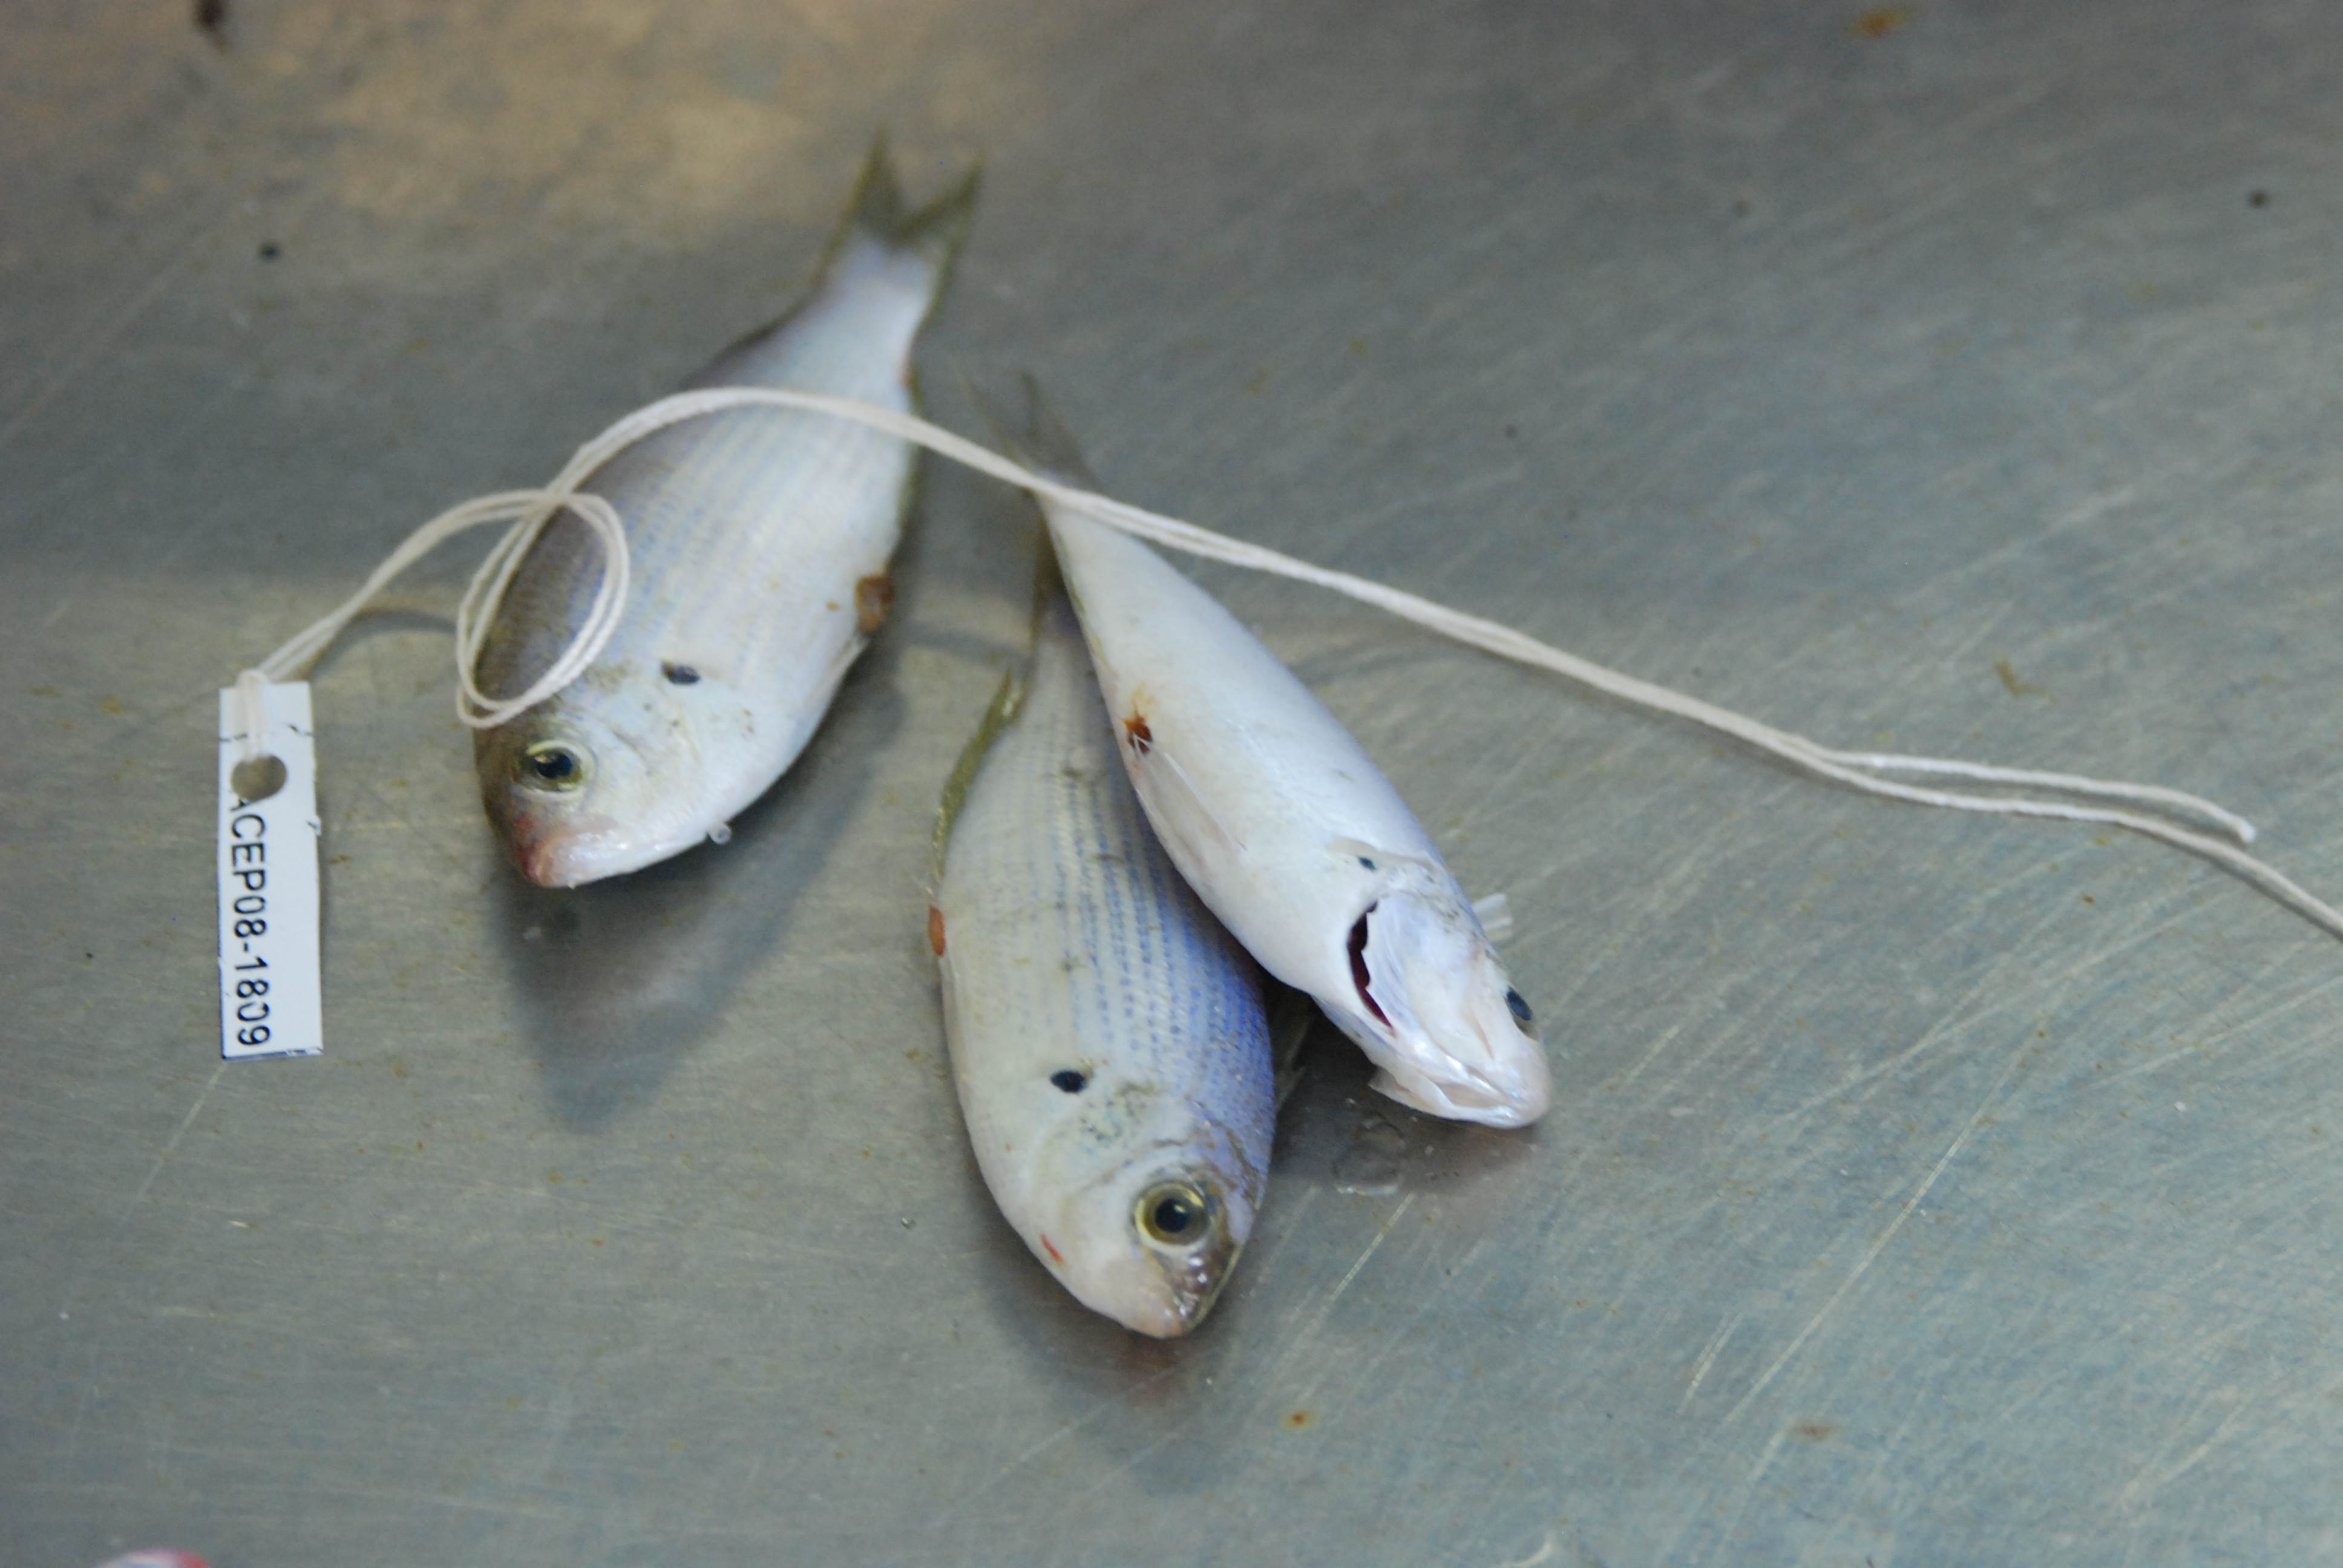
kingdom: Animalia
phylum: Chordata
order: Perciformes
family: Pomacentridae
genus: Teixeirichthys
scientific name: Teixeirichthys jordani
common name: Jordan's damsel
